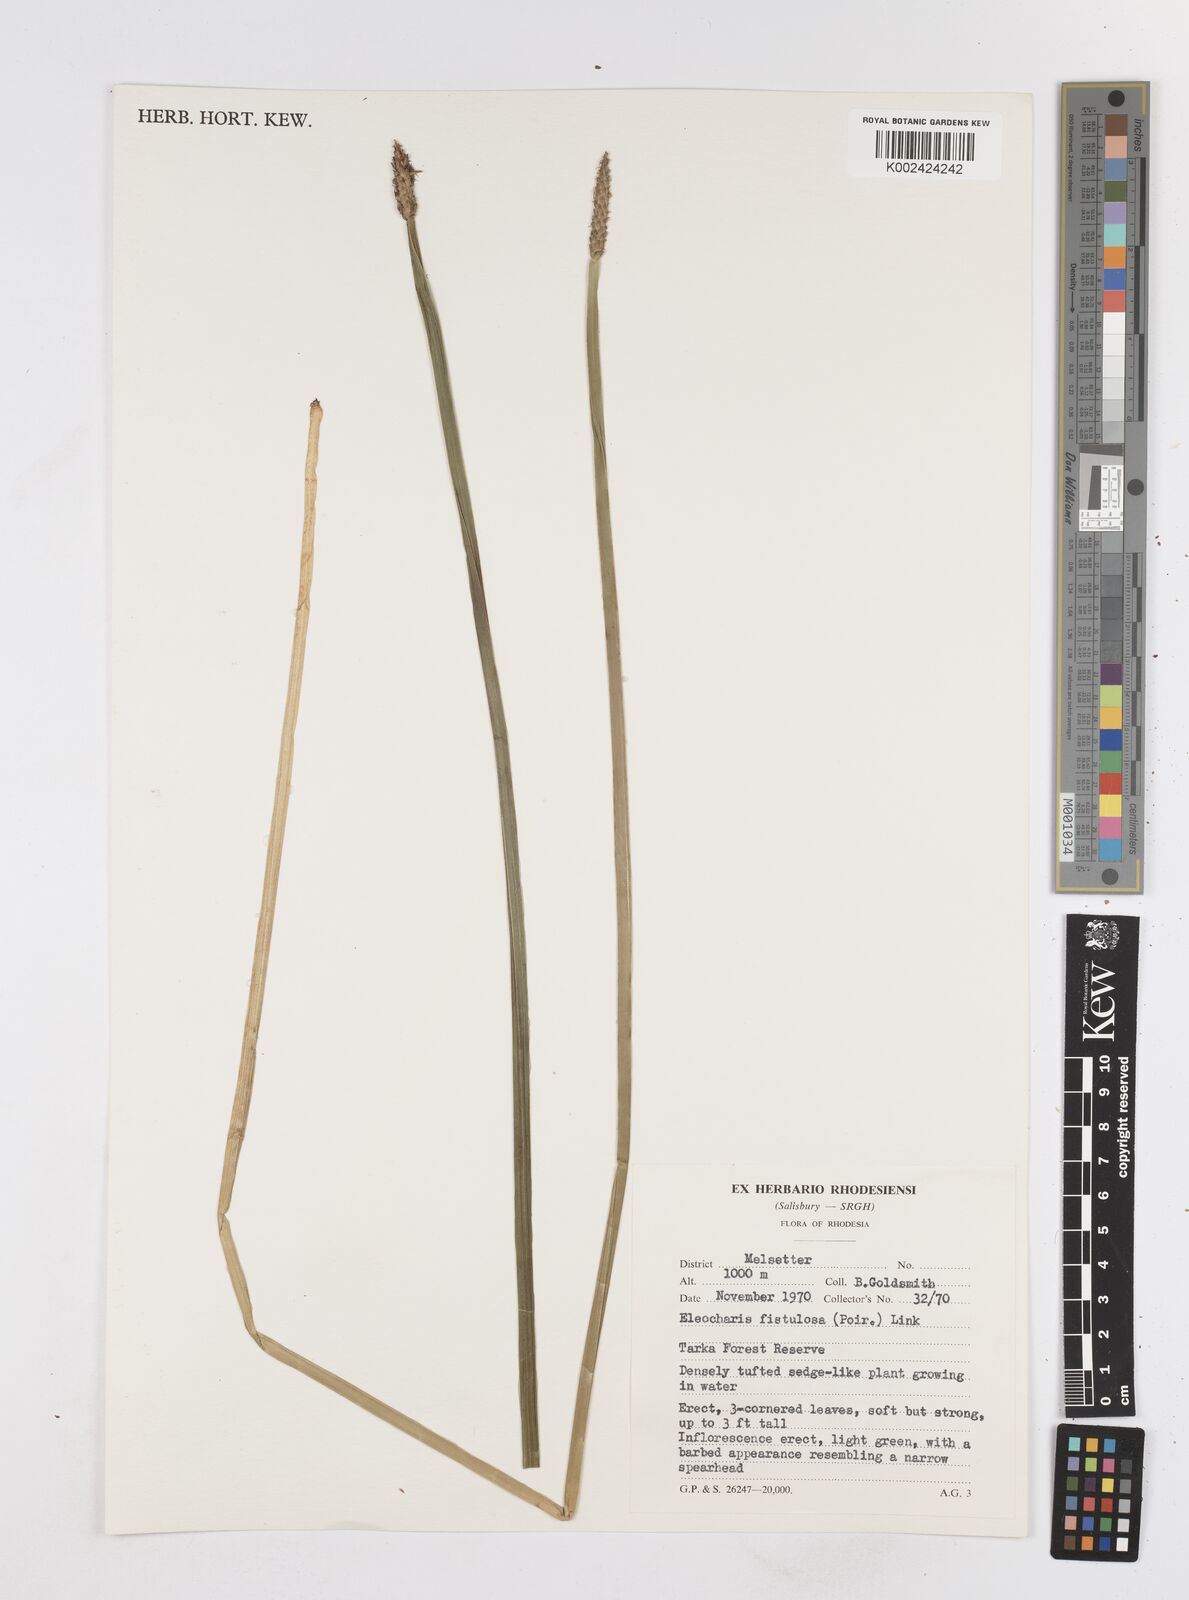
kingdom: Plantae
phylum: Tracheophyta
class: Liliopsida
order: Poales
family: Cyperaceae
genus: Eleocharis
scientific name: Eleocharis acutangula
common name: Acute spikerush
